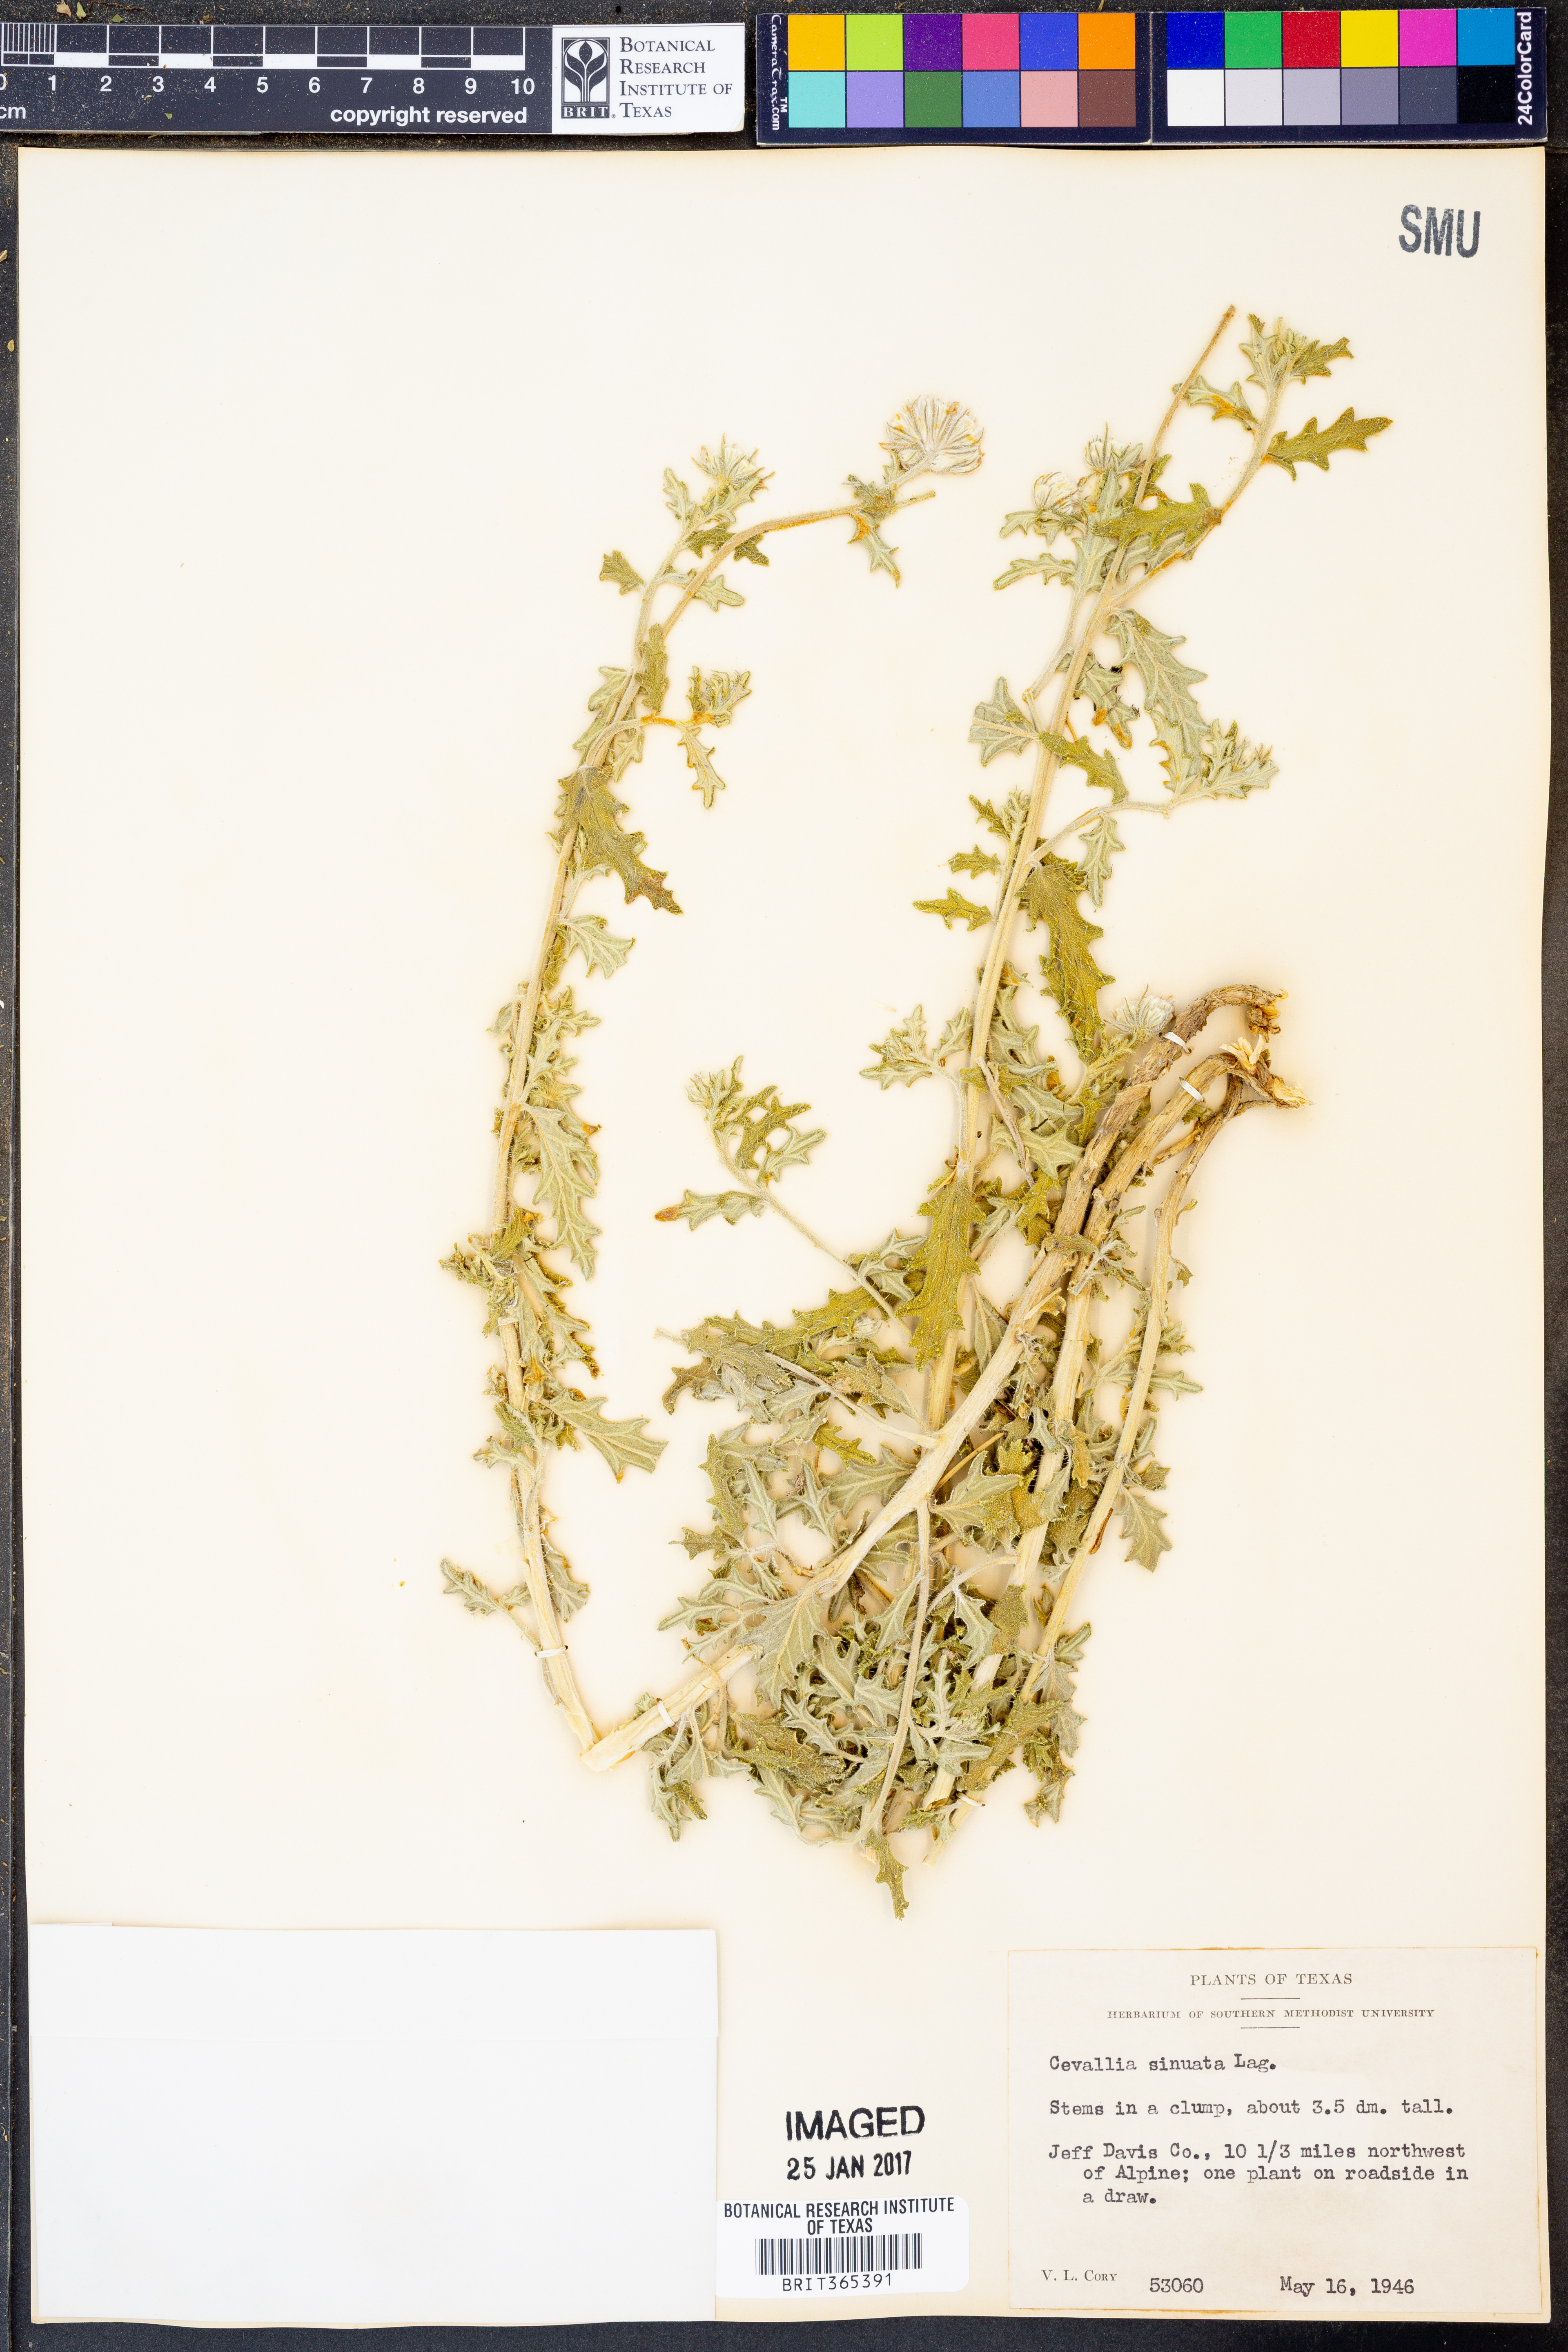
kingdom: Plantae
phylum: Tracheophyta
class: Magnoliopsida
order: Cornales
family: Loasaceae
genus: Cevallia
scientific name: Cevallia sinuata
